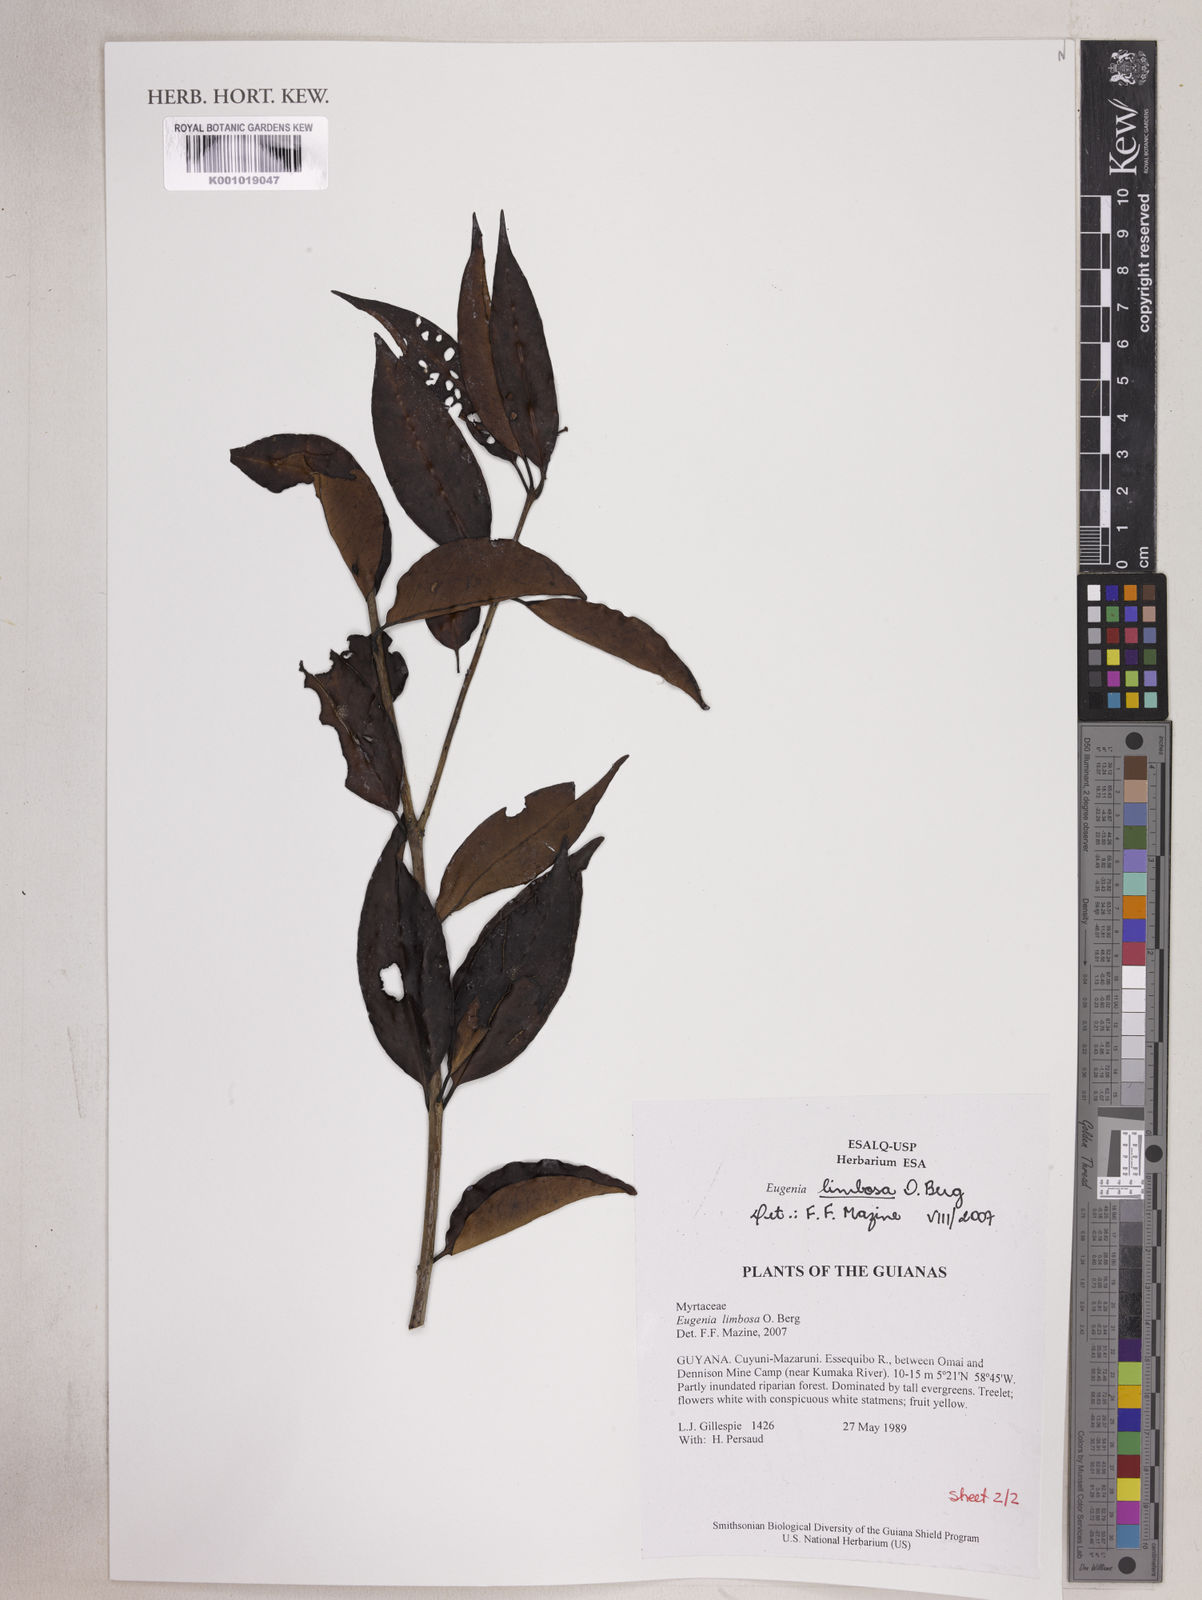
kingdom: Plantae
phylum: Tracheophyta
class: Magnoliopsida
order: Myrtales
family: Myrtaceae
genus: Eugenia
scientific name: Eugenia limbosa
